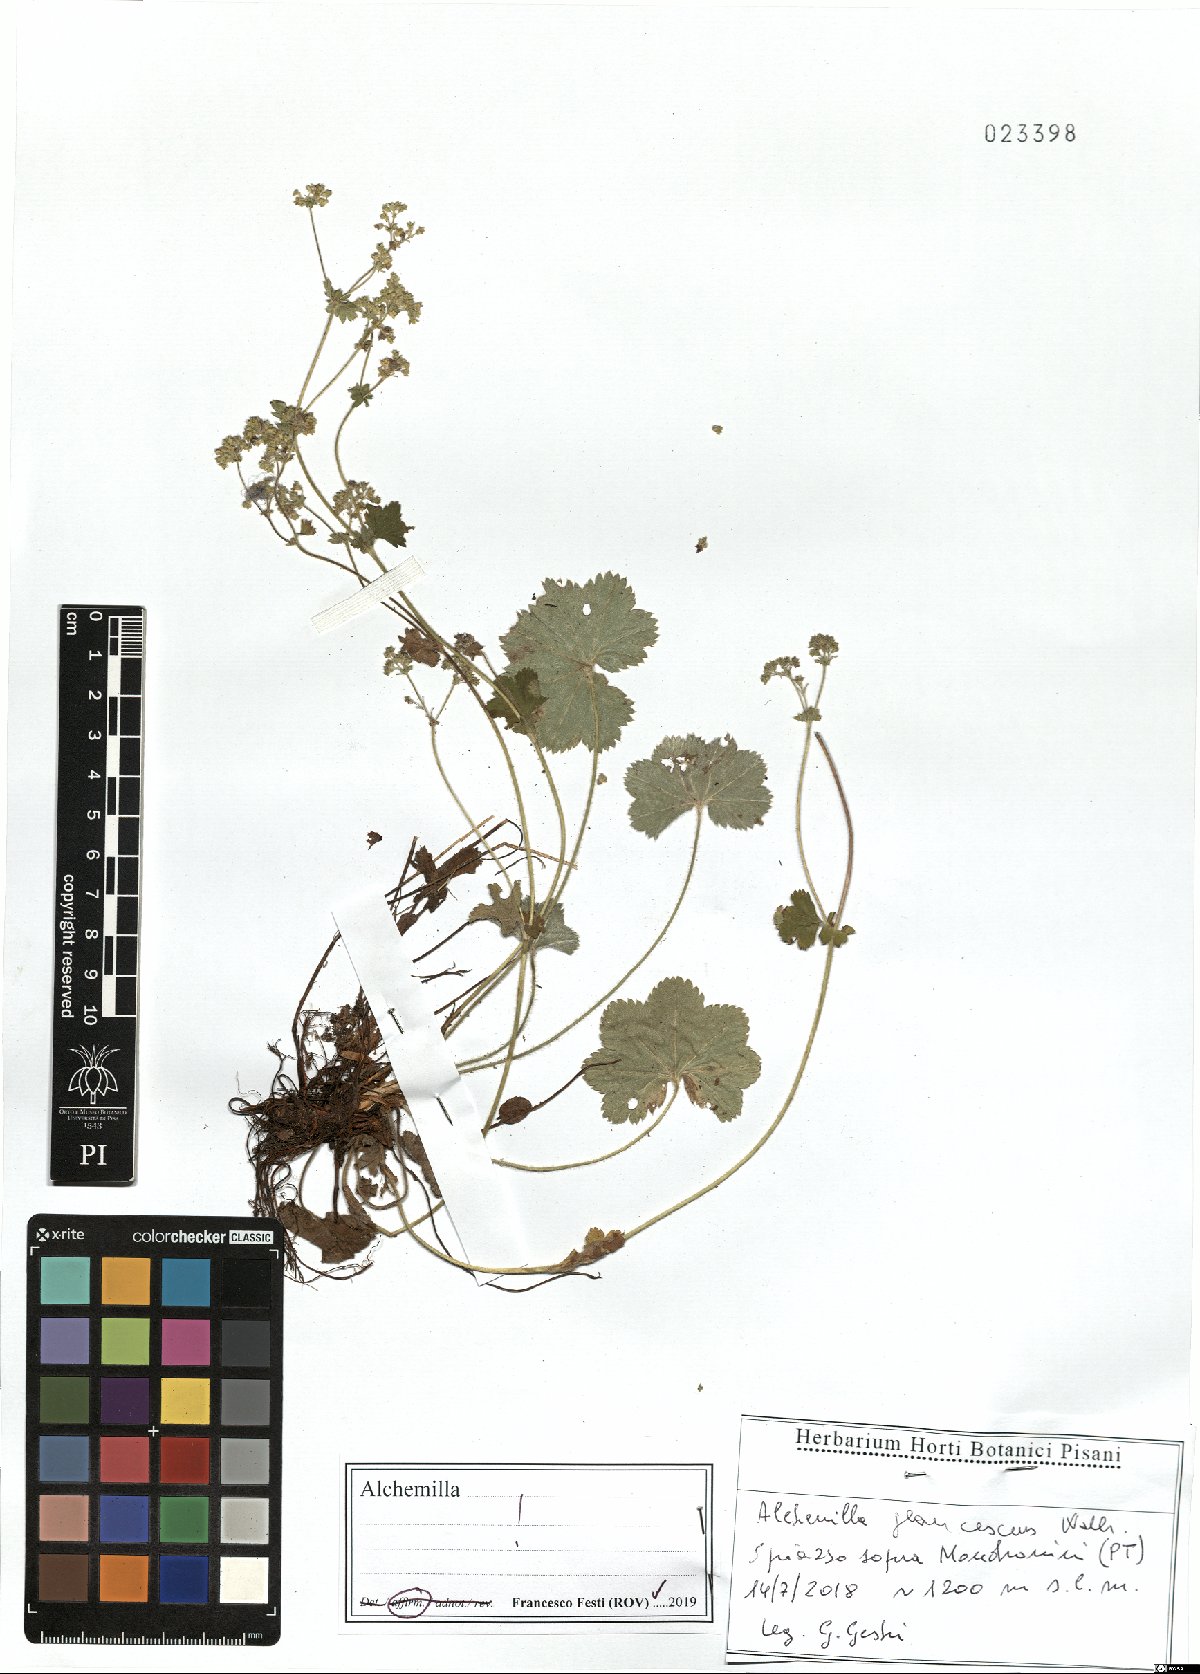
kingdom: Plantae
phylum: Tracheophyta
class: Magnoliopsida
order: Rosales
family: Rosaceae
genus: Alchemilla
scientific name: Alchemilla glaucescens
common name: Silky lady's mantle
